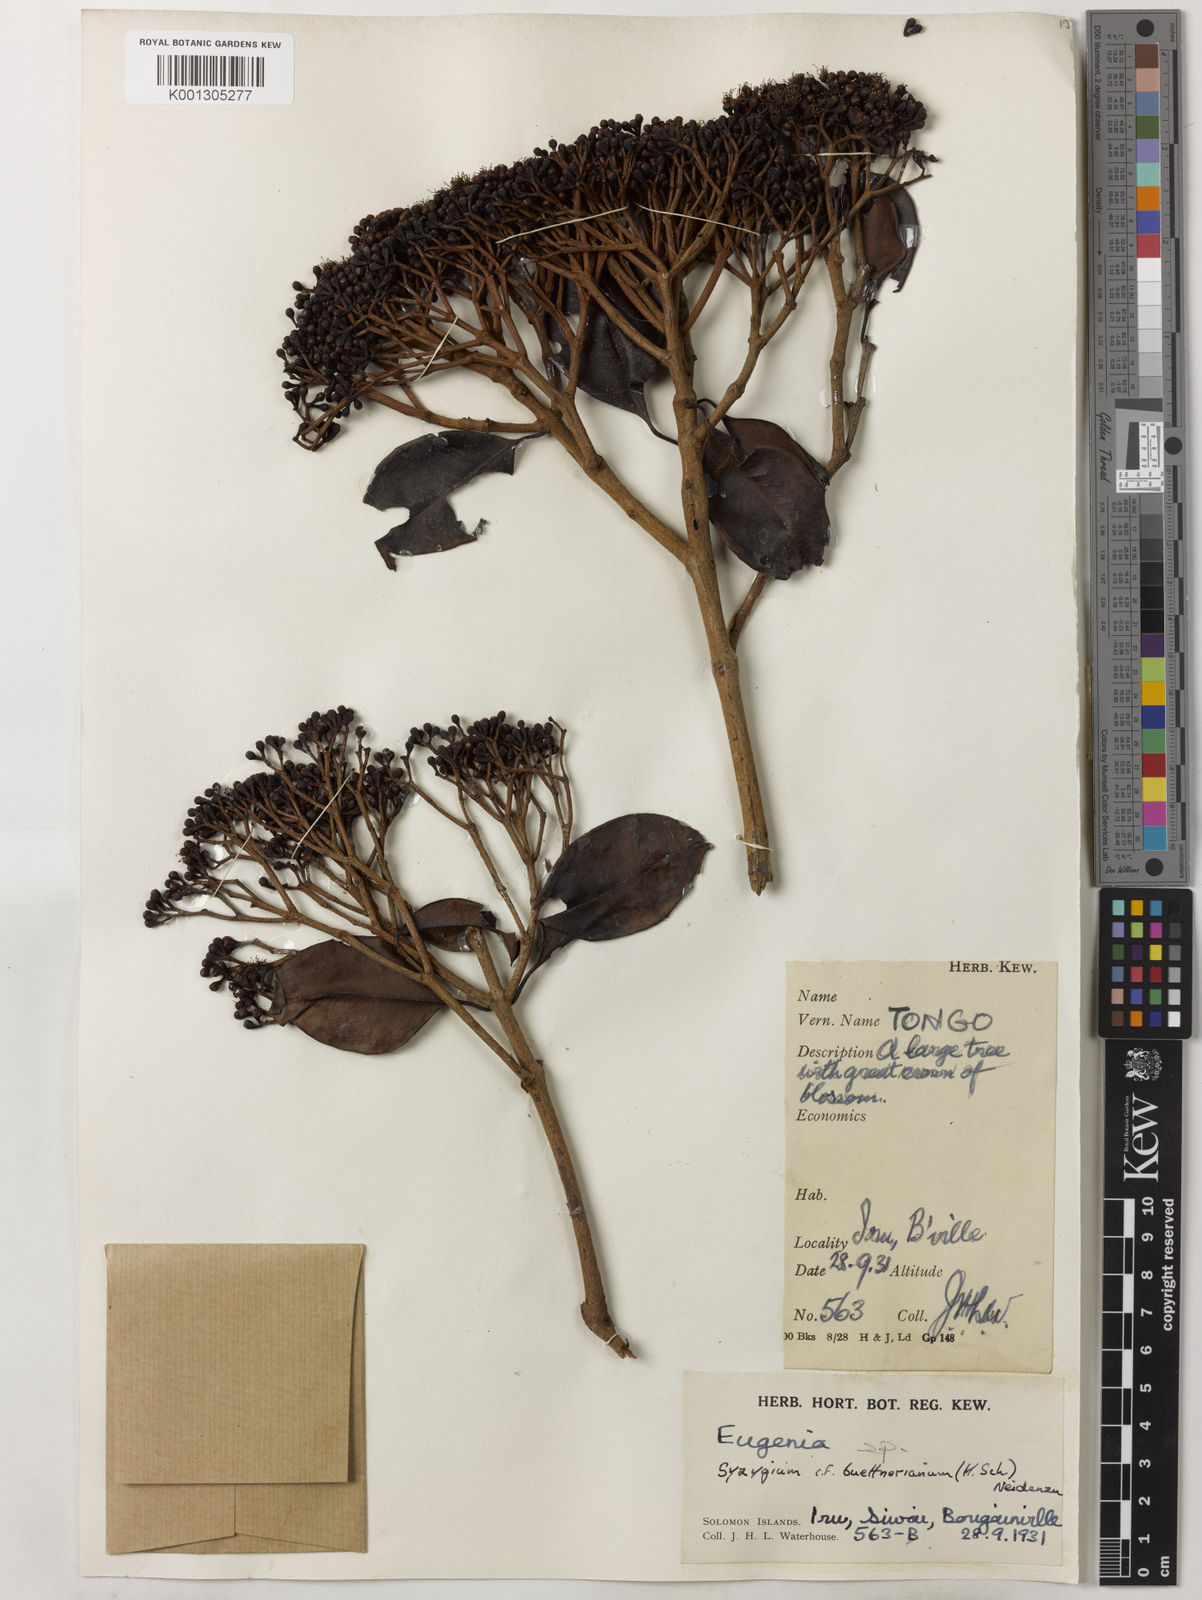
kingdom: Plantae
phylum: Tracheophyta
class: Magnoliopsida
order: Myrtales
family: Myrtaceae
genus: Syzygium
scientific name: Syzygium buettnerianum
